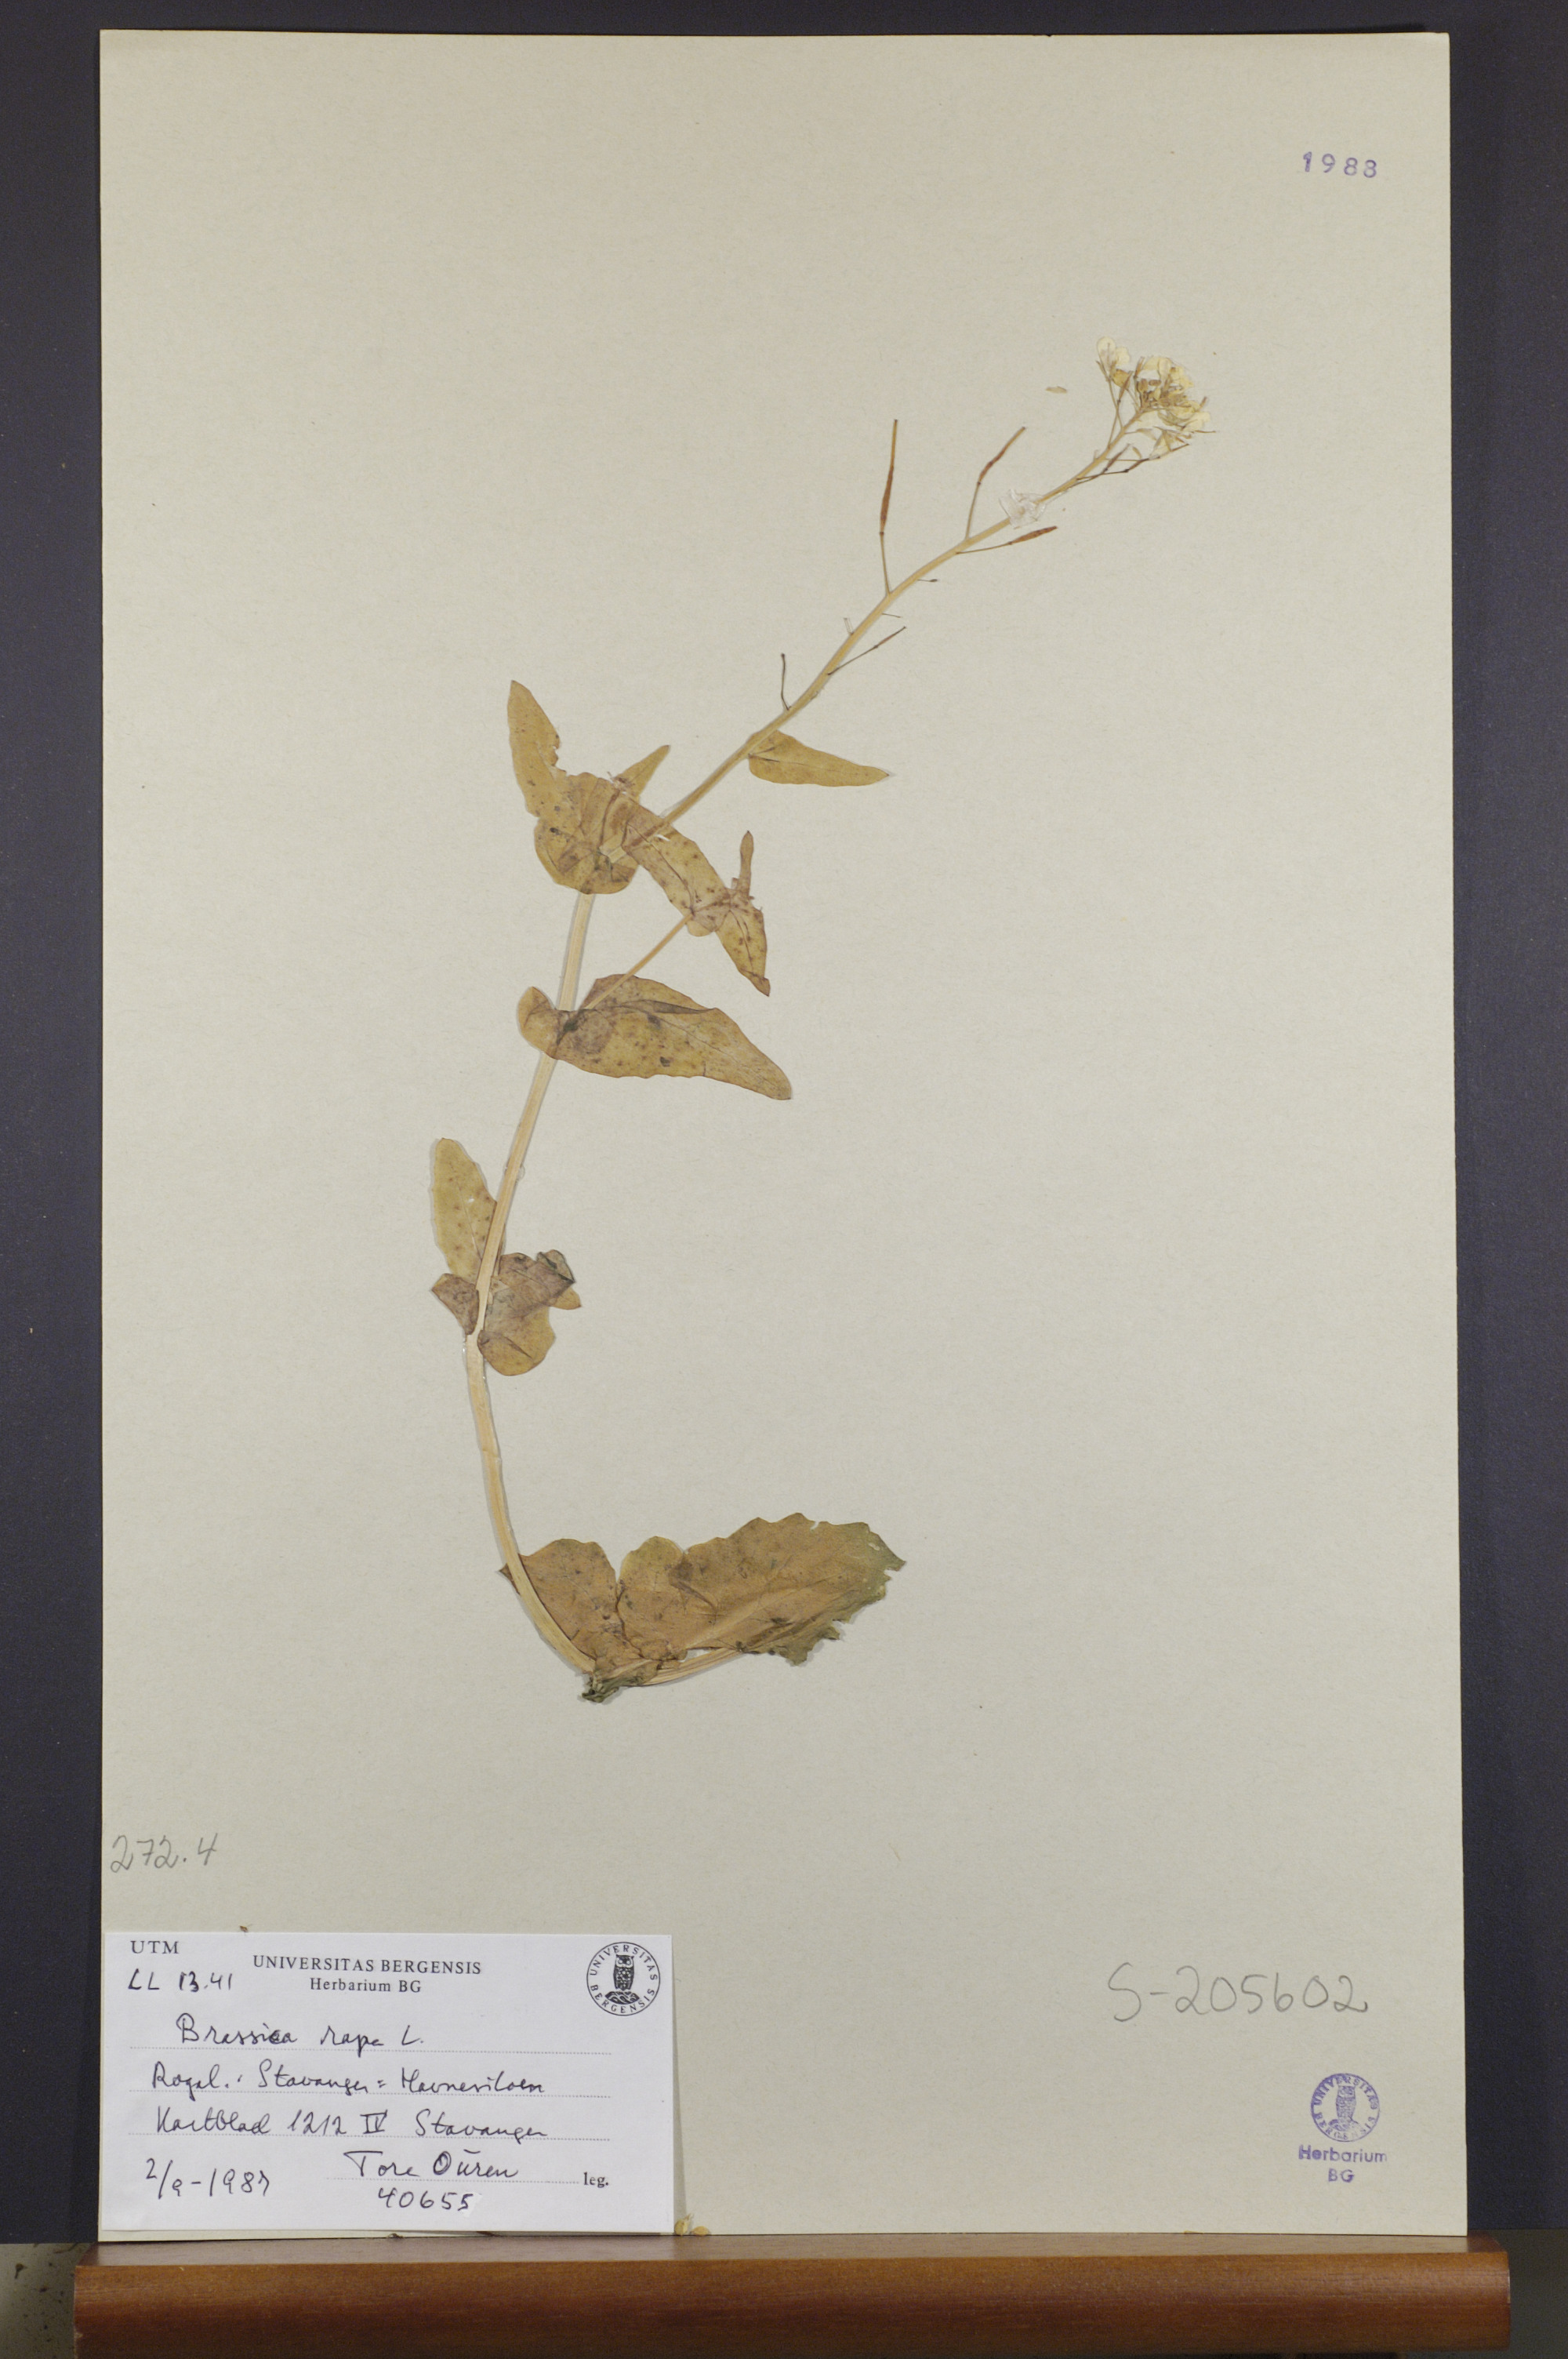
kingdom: Plantae
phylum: Tracheophyta
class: Magnoliopsida
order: Brassicales
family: Brassicaceae
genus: Brassica
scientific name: Brassica rapa
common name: Field mustard
